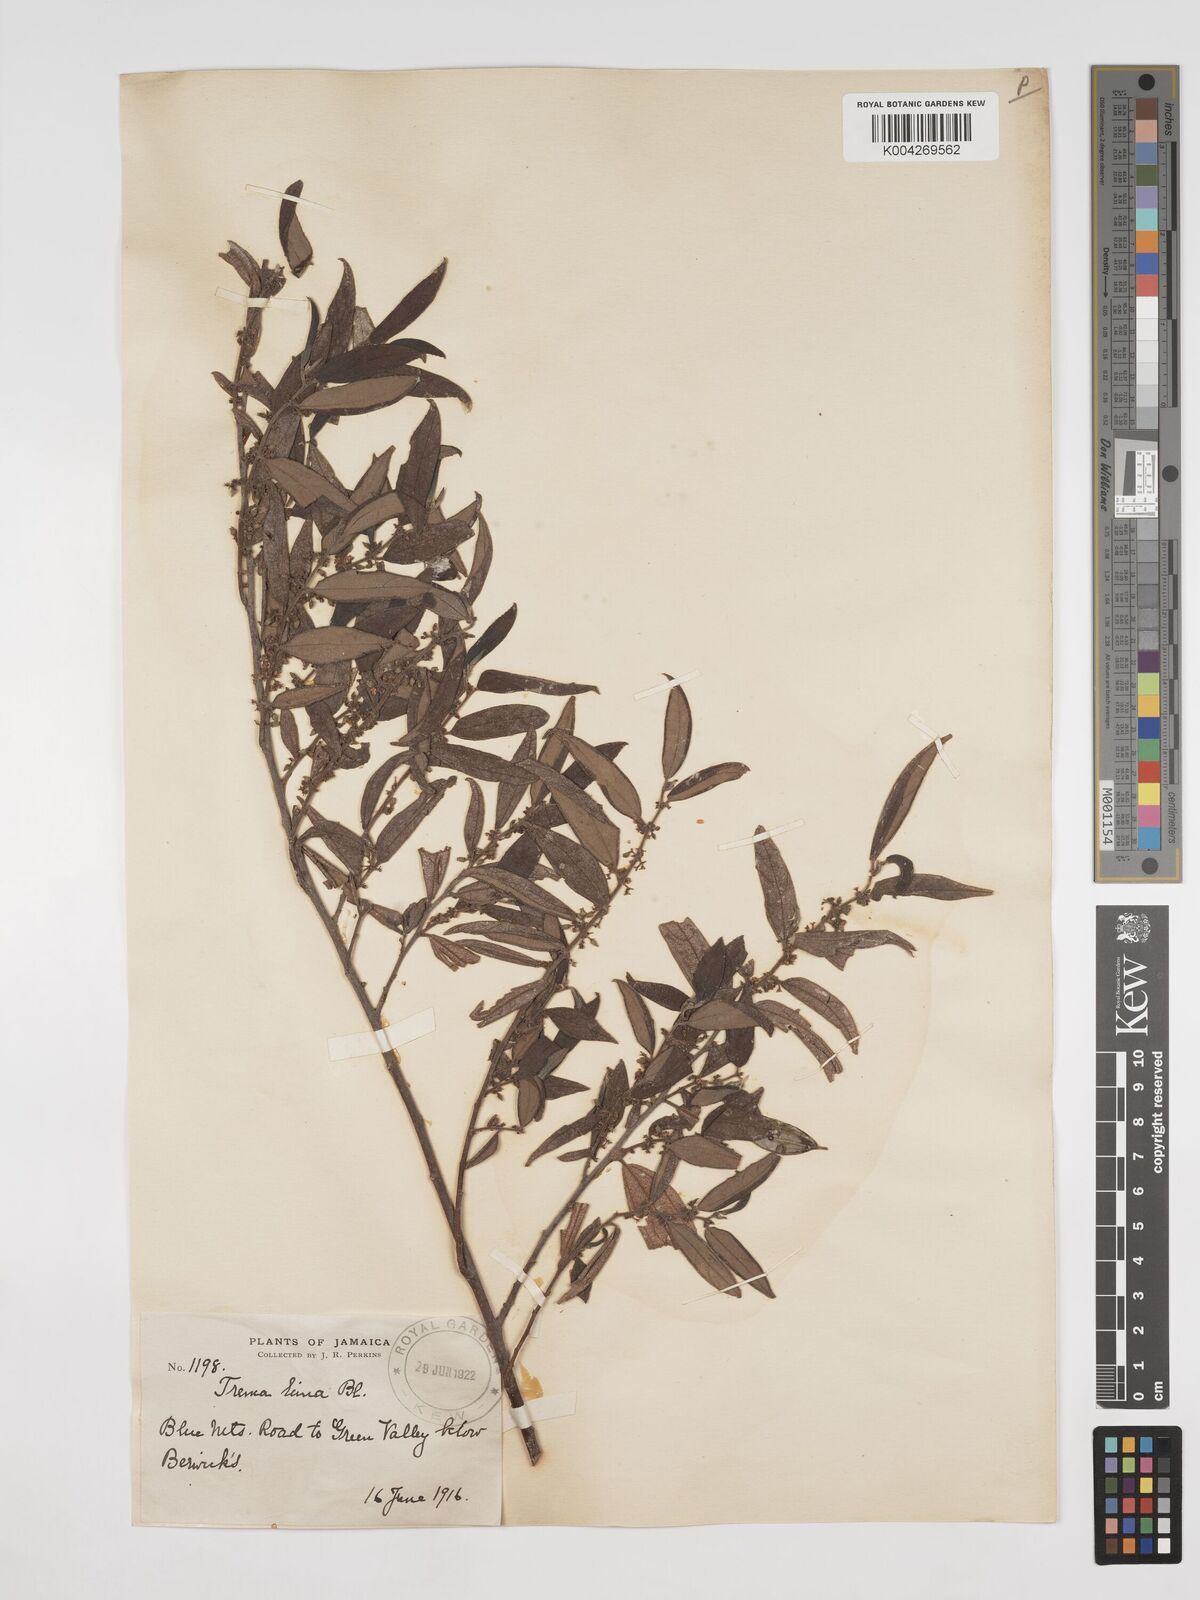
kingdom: Plantae
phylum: Tracheophyta
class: Magnoliopsida
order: Rosales
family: Cannabaceae
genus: Trema
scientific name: Trema micranthum
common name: Jamaican nettletree
